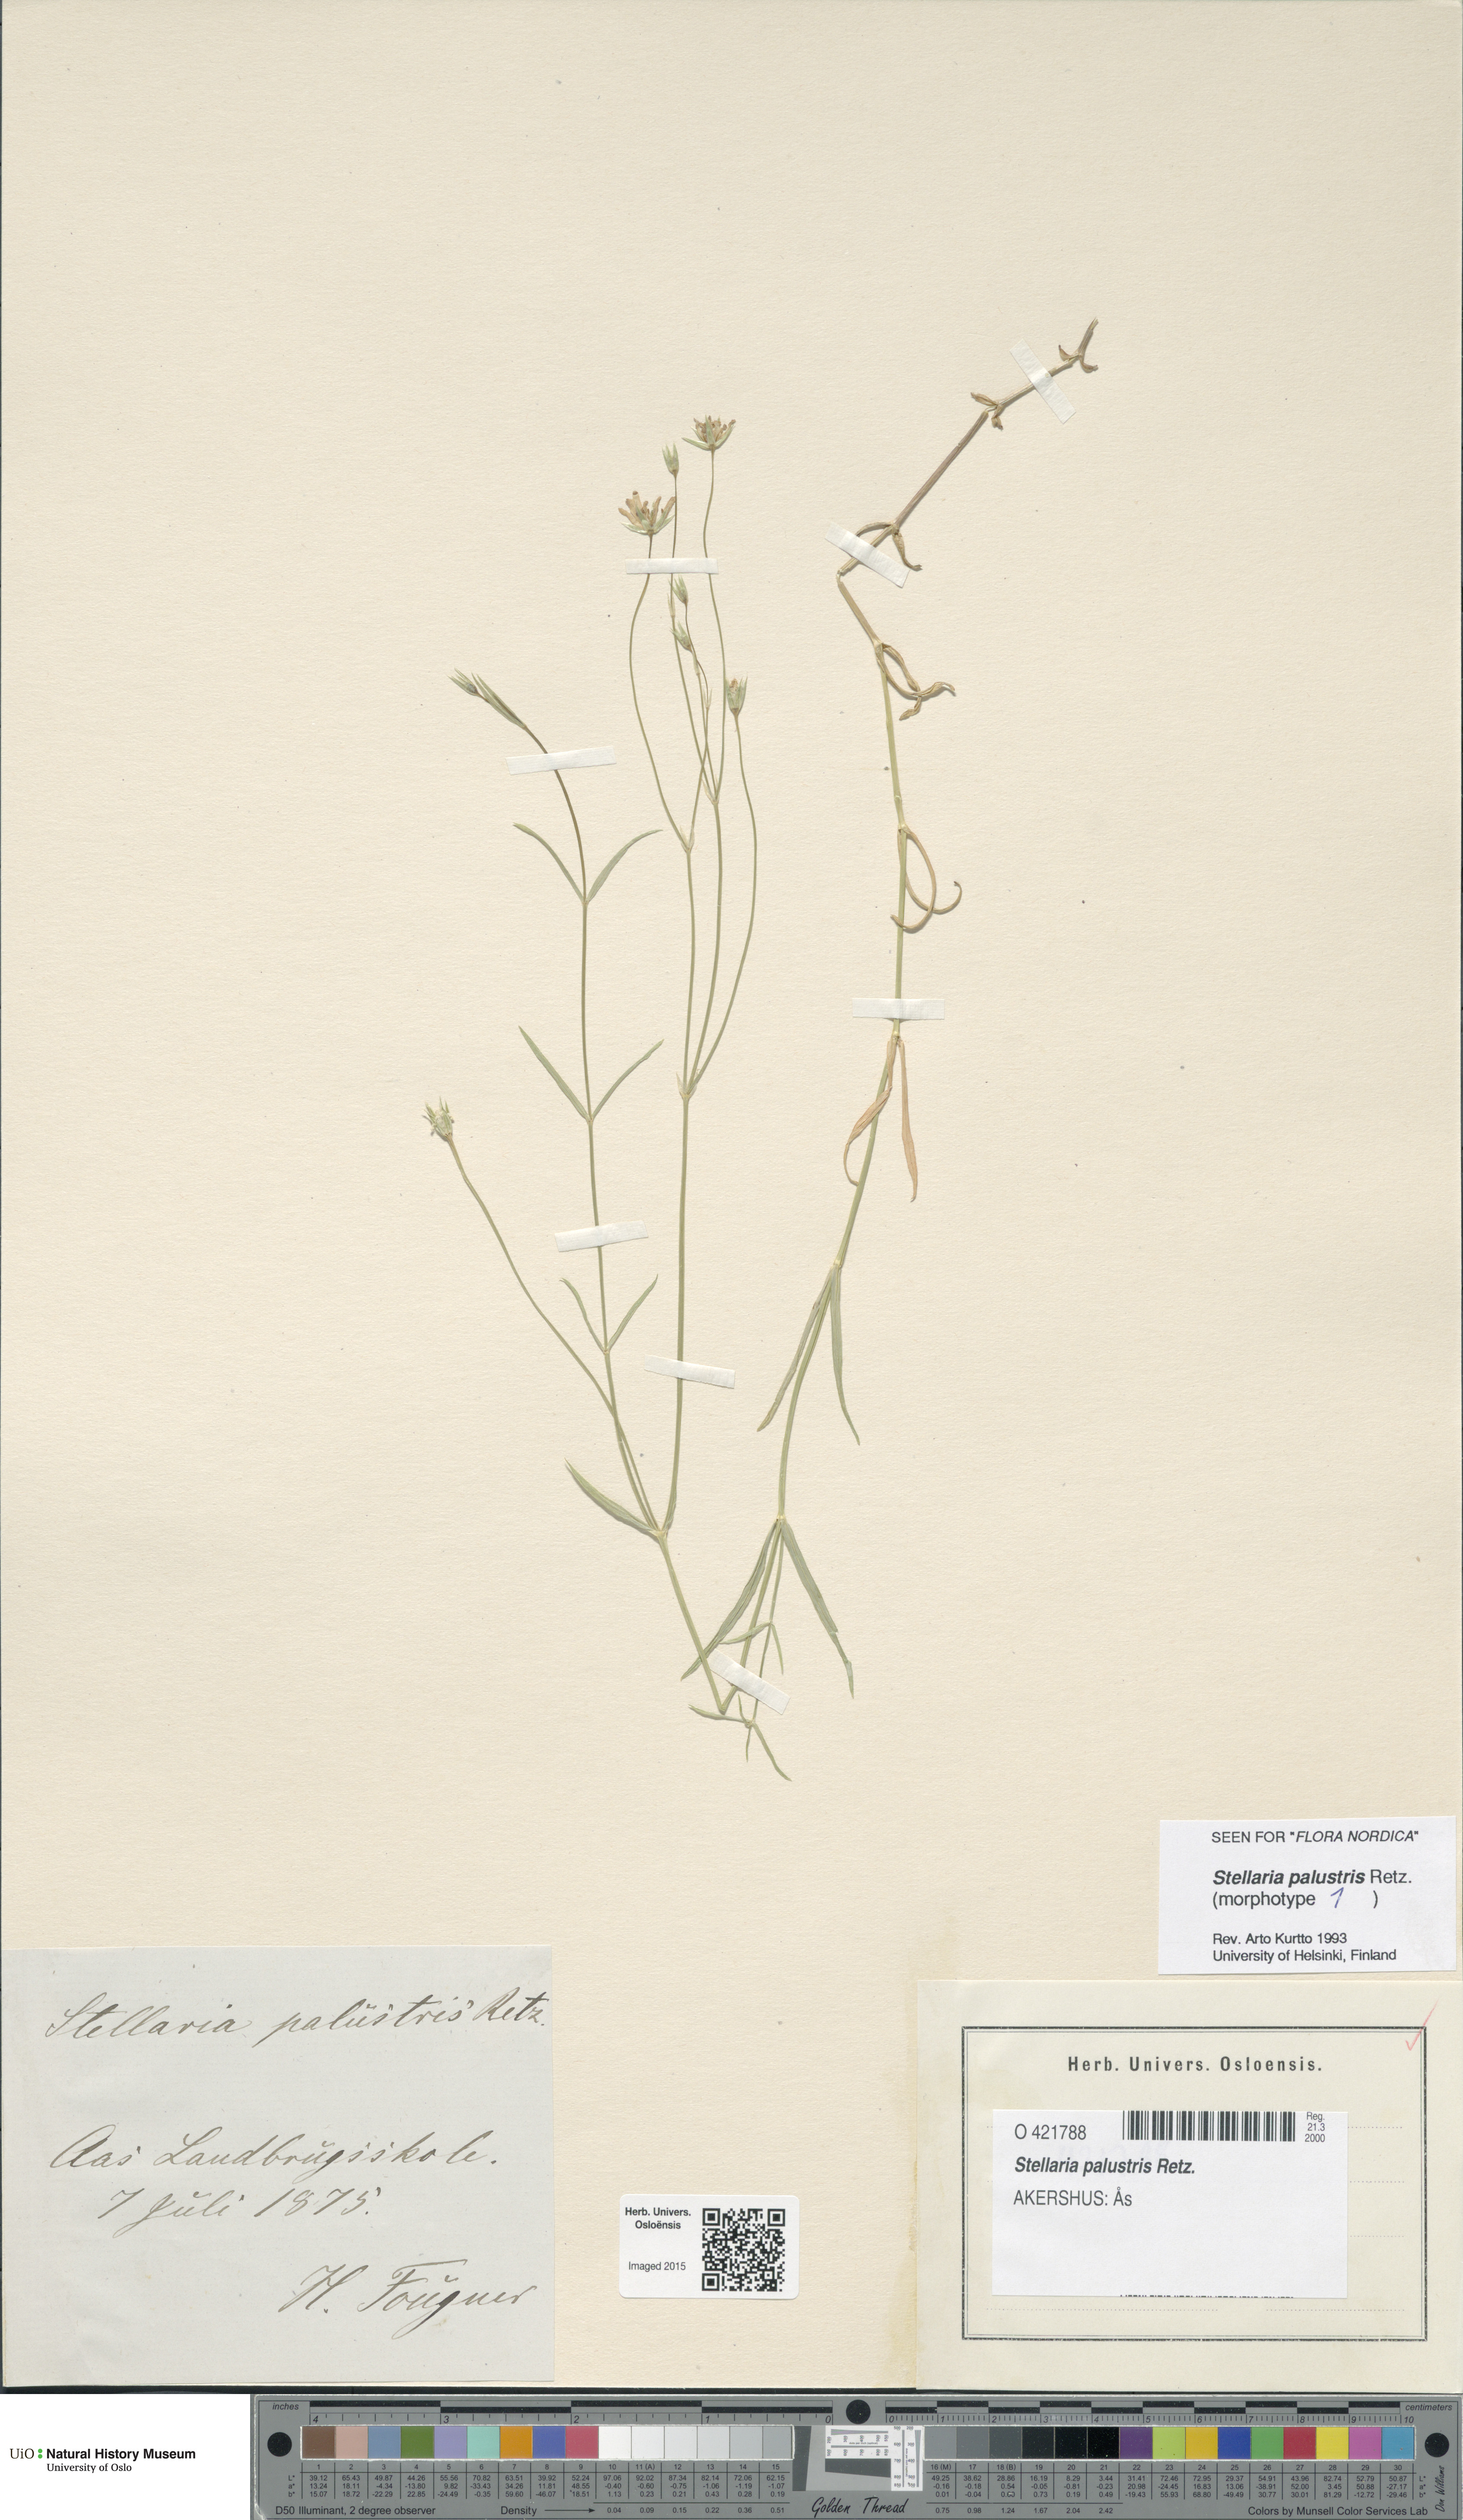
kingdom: Plantae
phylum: Tracheophyta
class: Magnoliopsida
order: Caryophyllales
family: Caryophyllaceae
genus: Stellaria
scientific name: Stellaria palustris
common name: Marsh stitchwort
